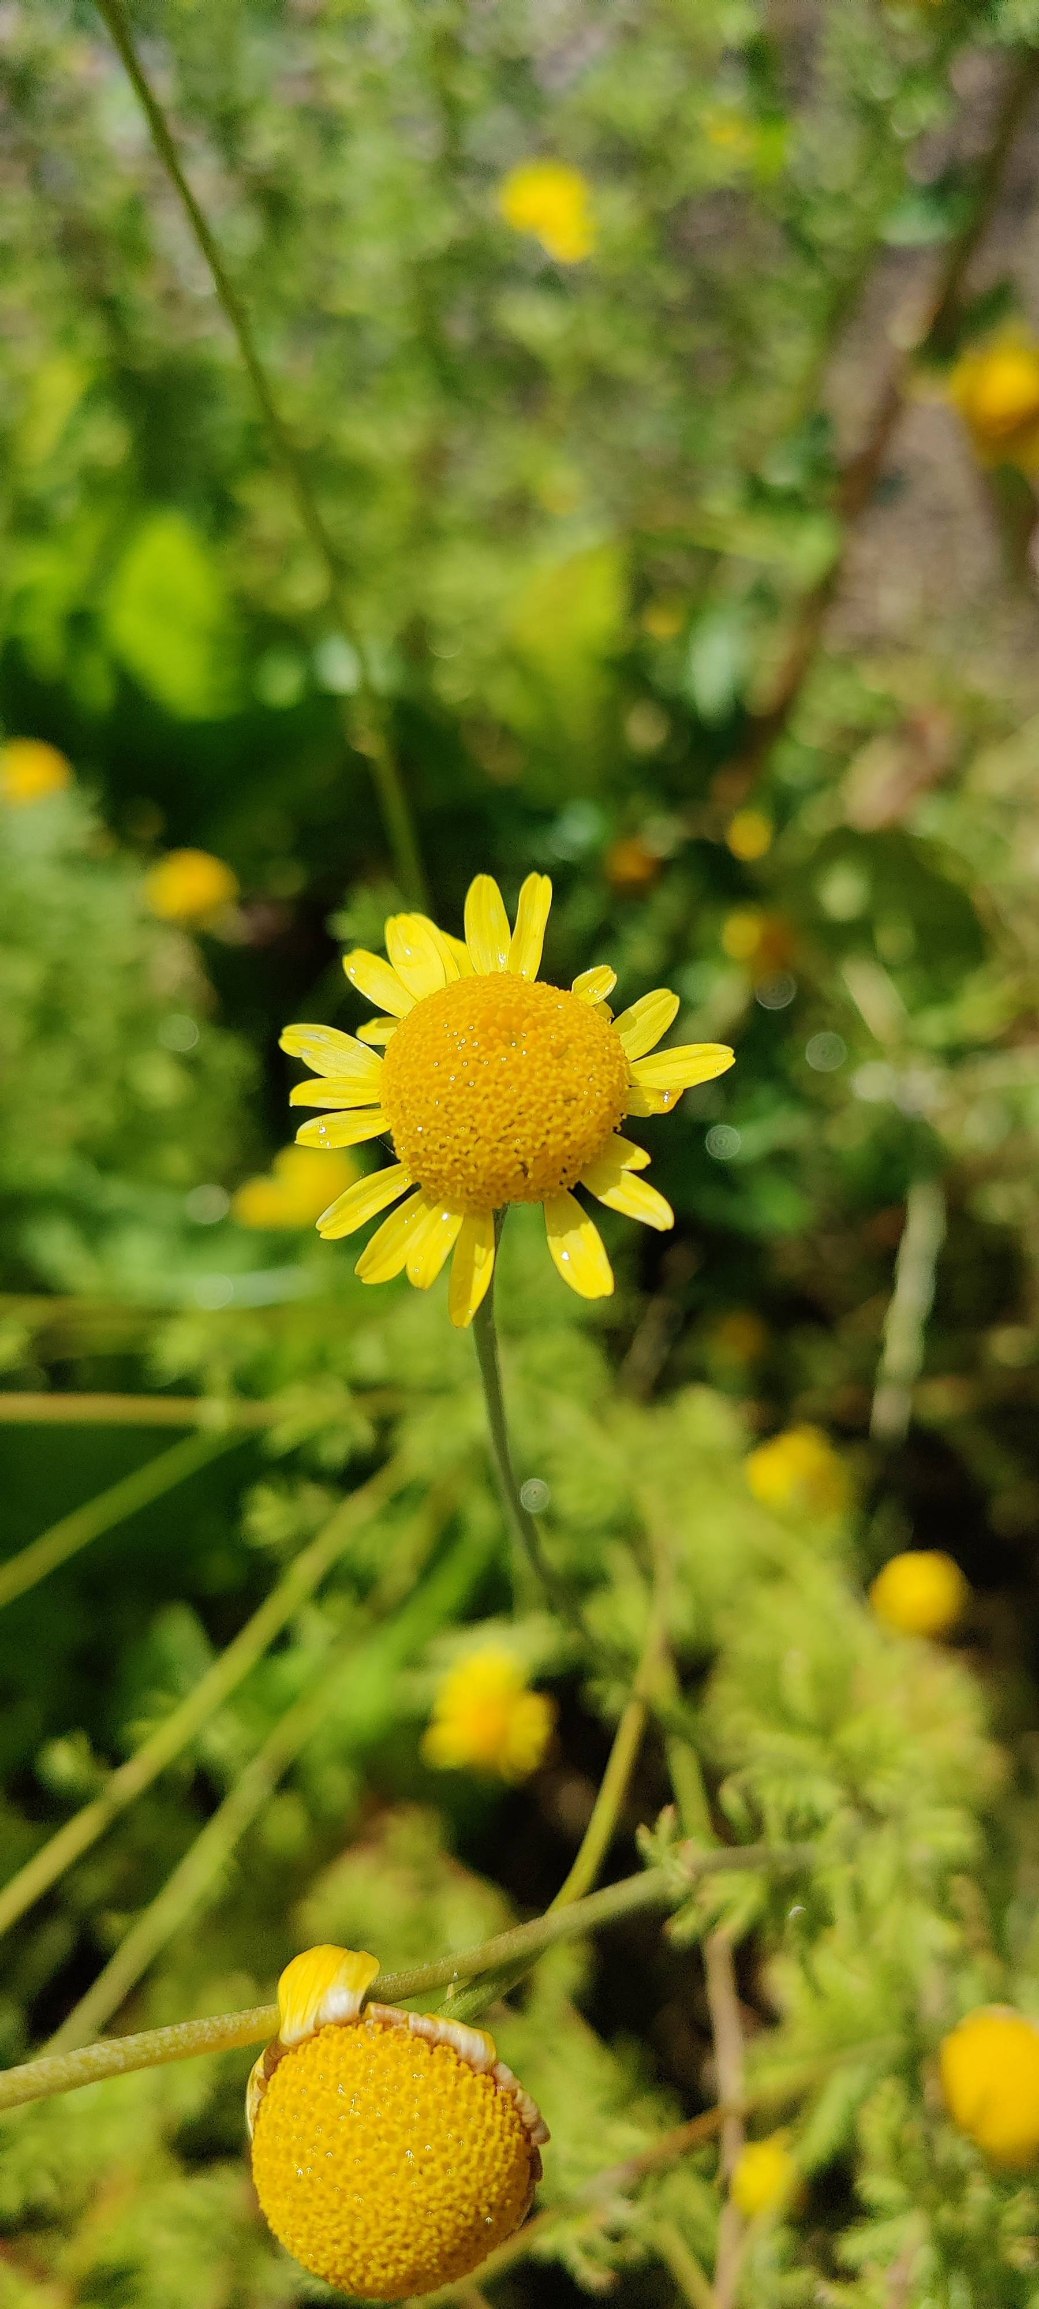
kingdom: Plantae
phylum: Tracheophyta
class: Magnoliopsida
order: Asterales
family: Asteraceae
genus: Cota
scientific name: Cota tinctoria
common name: Farve-gåseurt
